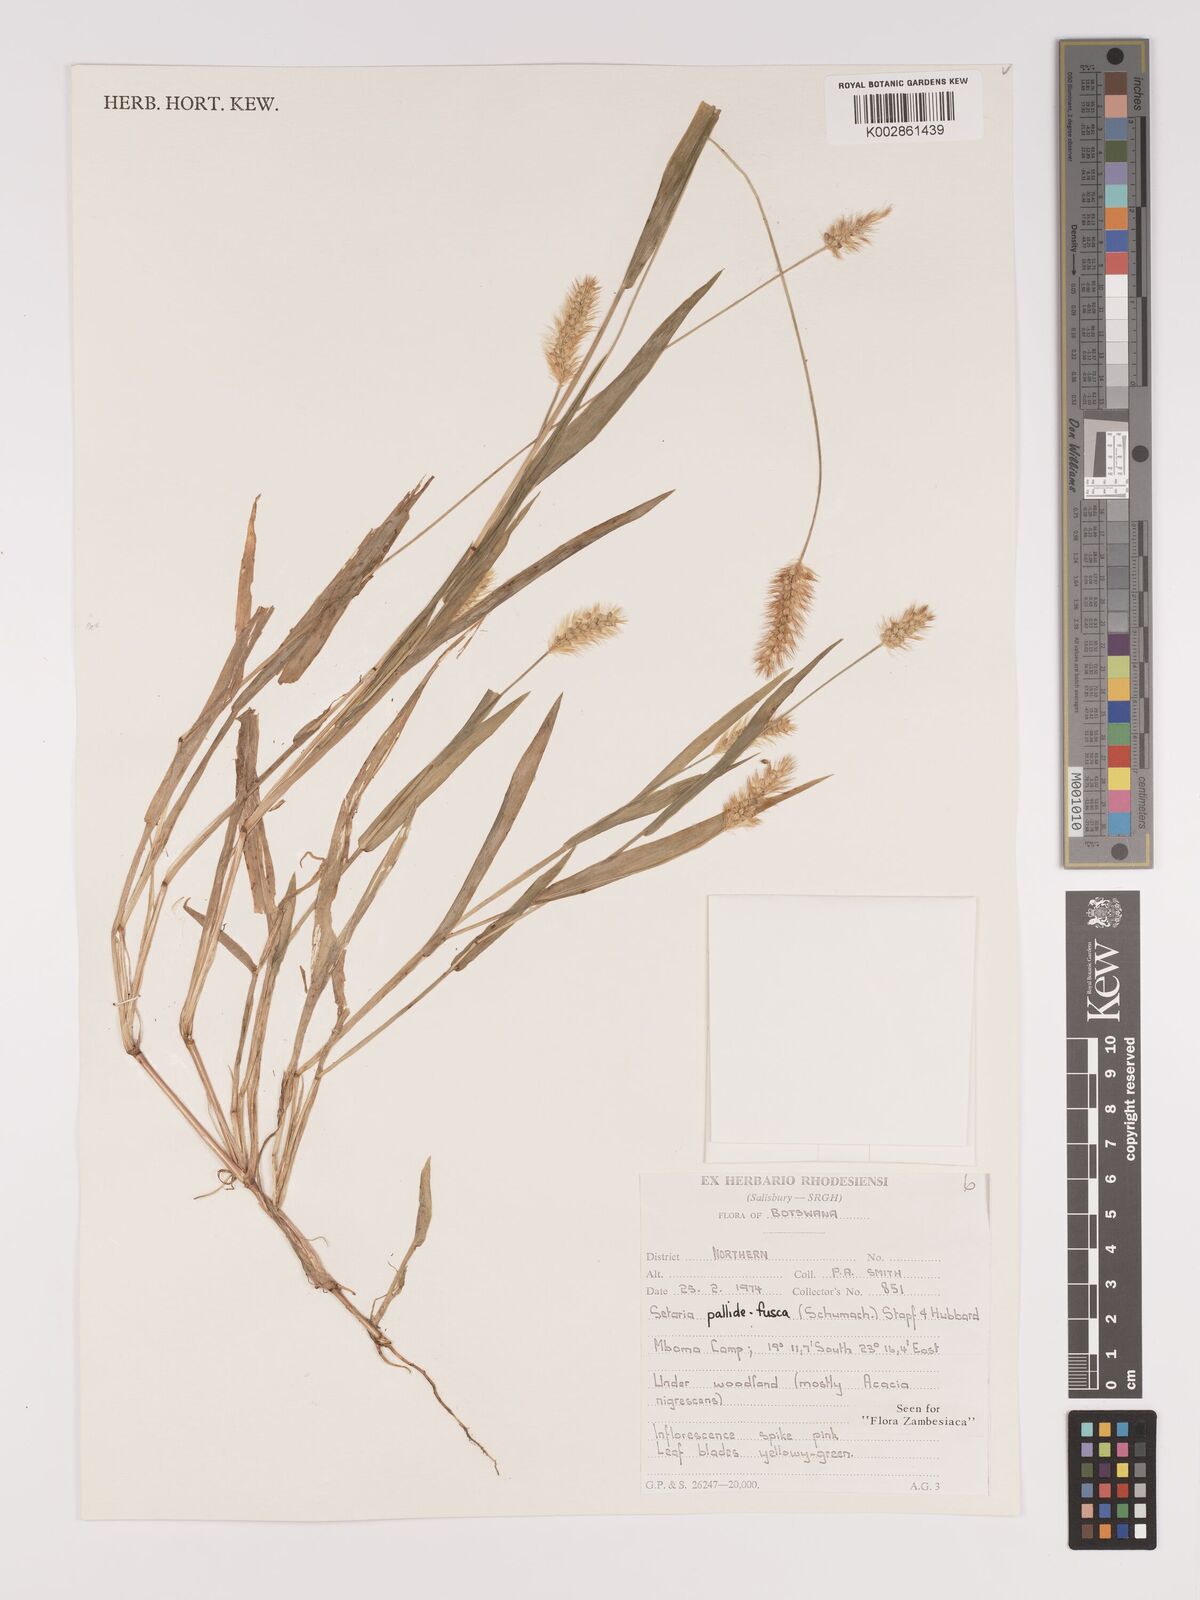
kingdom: Plantae
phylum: Tracheophyta
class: Liliopsida
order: Poales
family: Poaceae
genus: Setaria
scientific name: Setaria pumila
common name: Yellow bristle-grass
